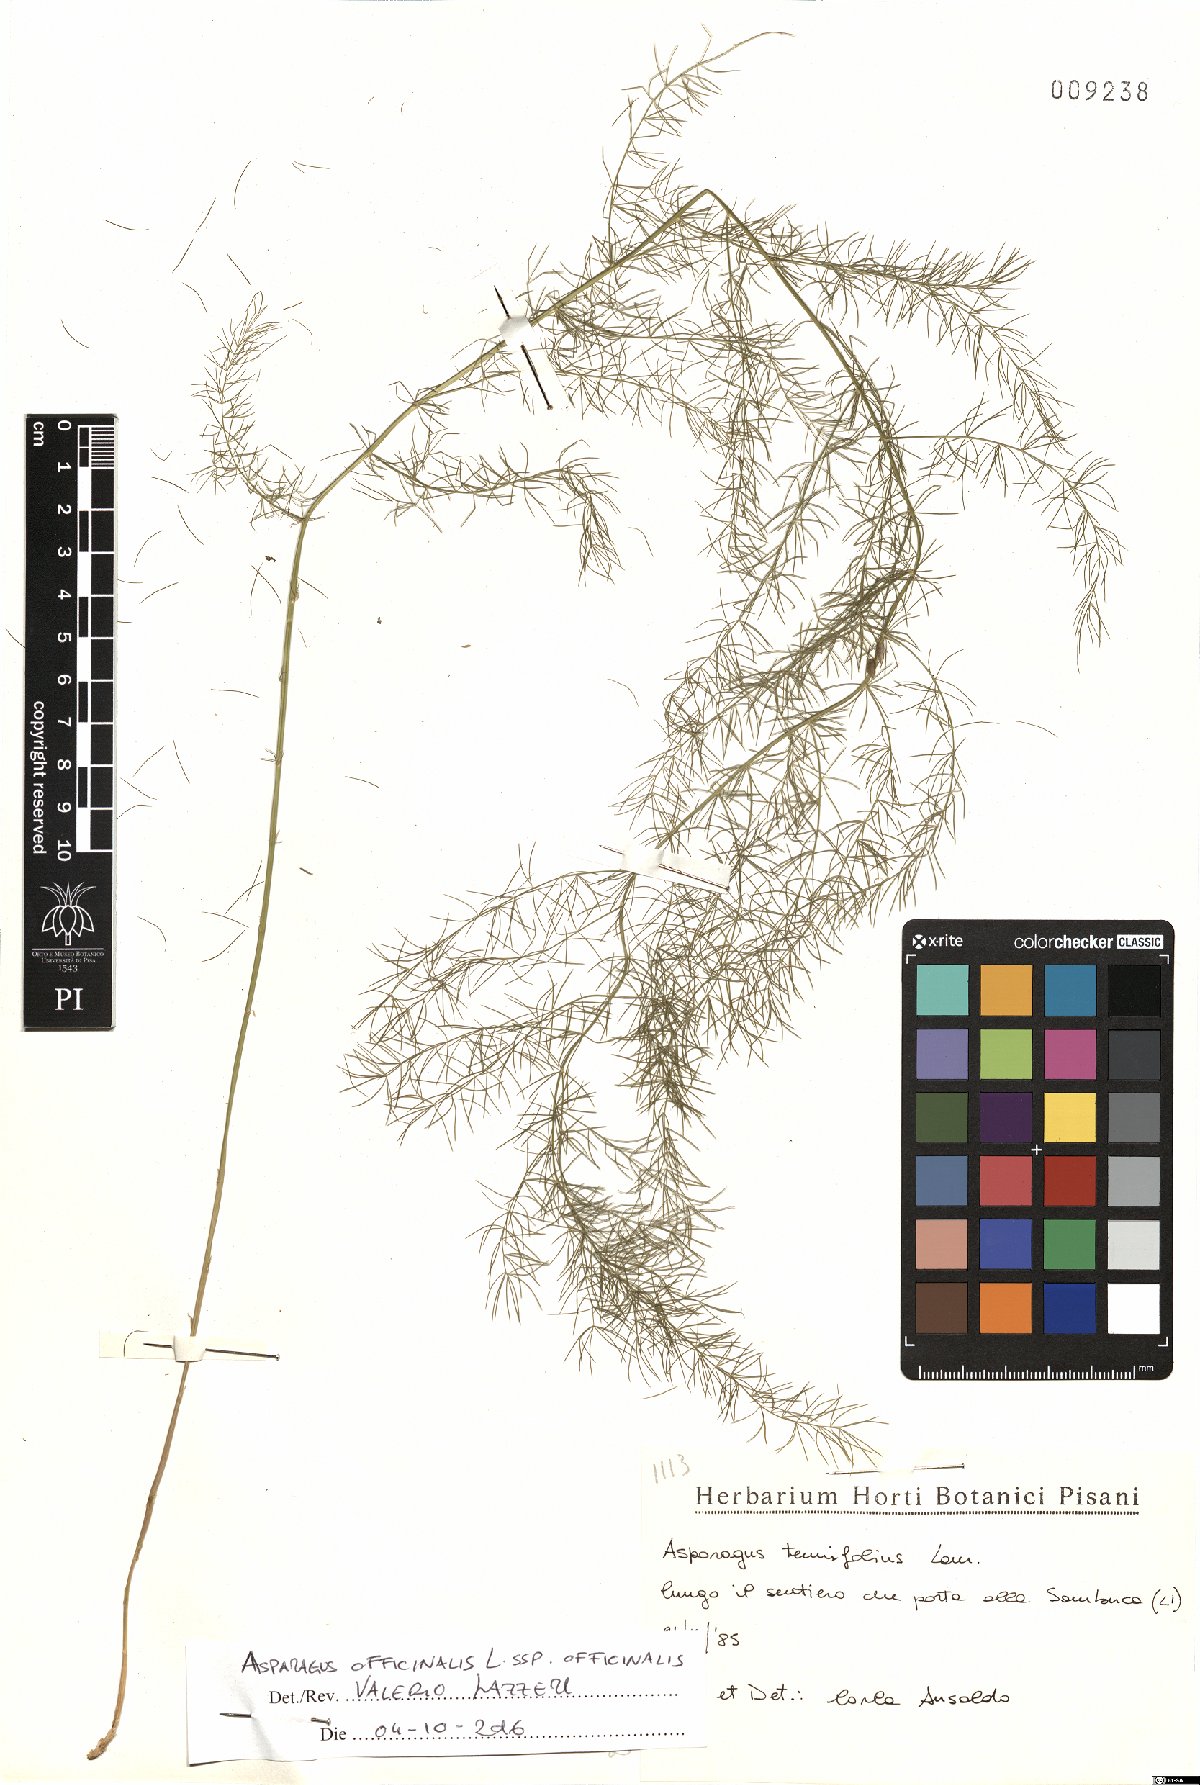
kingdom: Plantae
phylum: Tracheophyta
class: Liliopsida
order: Asparagales
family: Asparagaceae
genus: Asparagus
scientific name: Asparagus officinalis
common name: Garden asparagus
